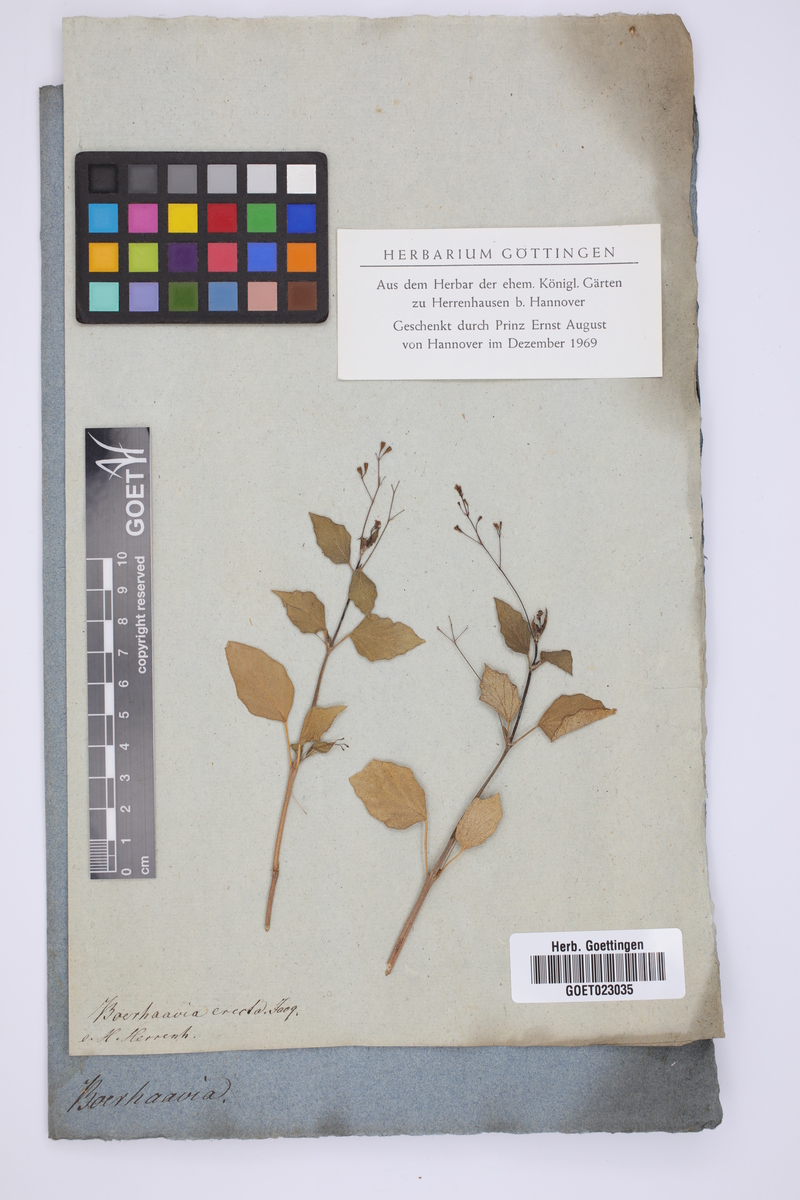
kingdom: Plantae
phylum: Tracheophyta
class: Magnoliopsida
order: Caryophyllales
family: Nyctaginaceae
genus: Boerhavia
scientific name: Boerhavia erecta
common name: Erect spiderling
